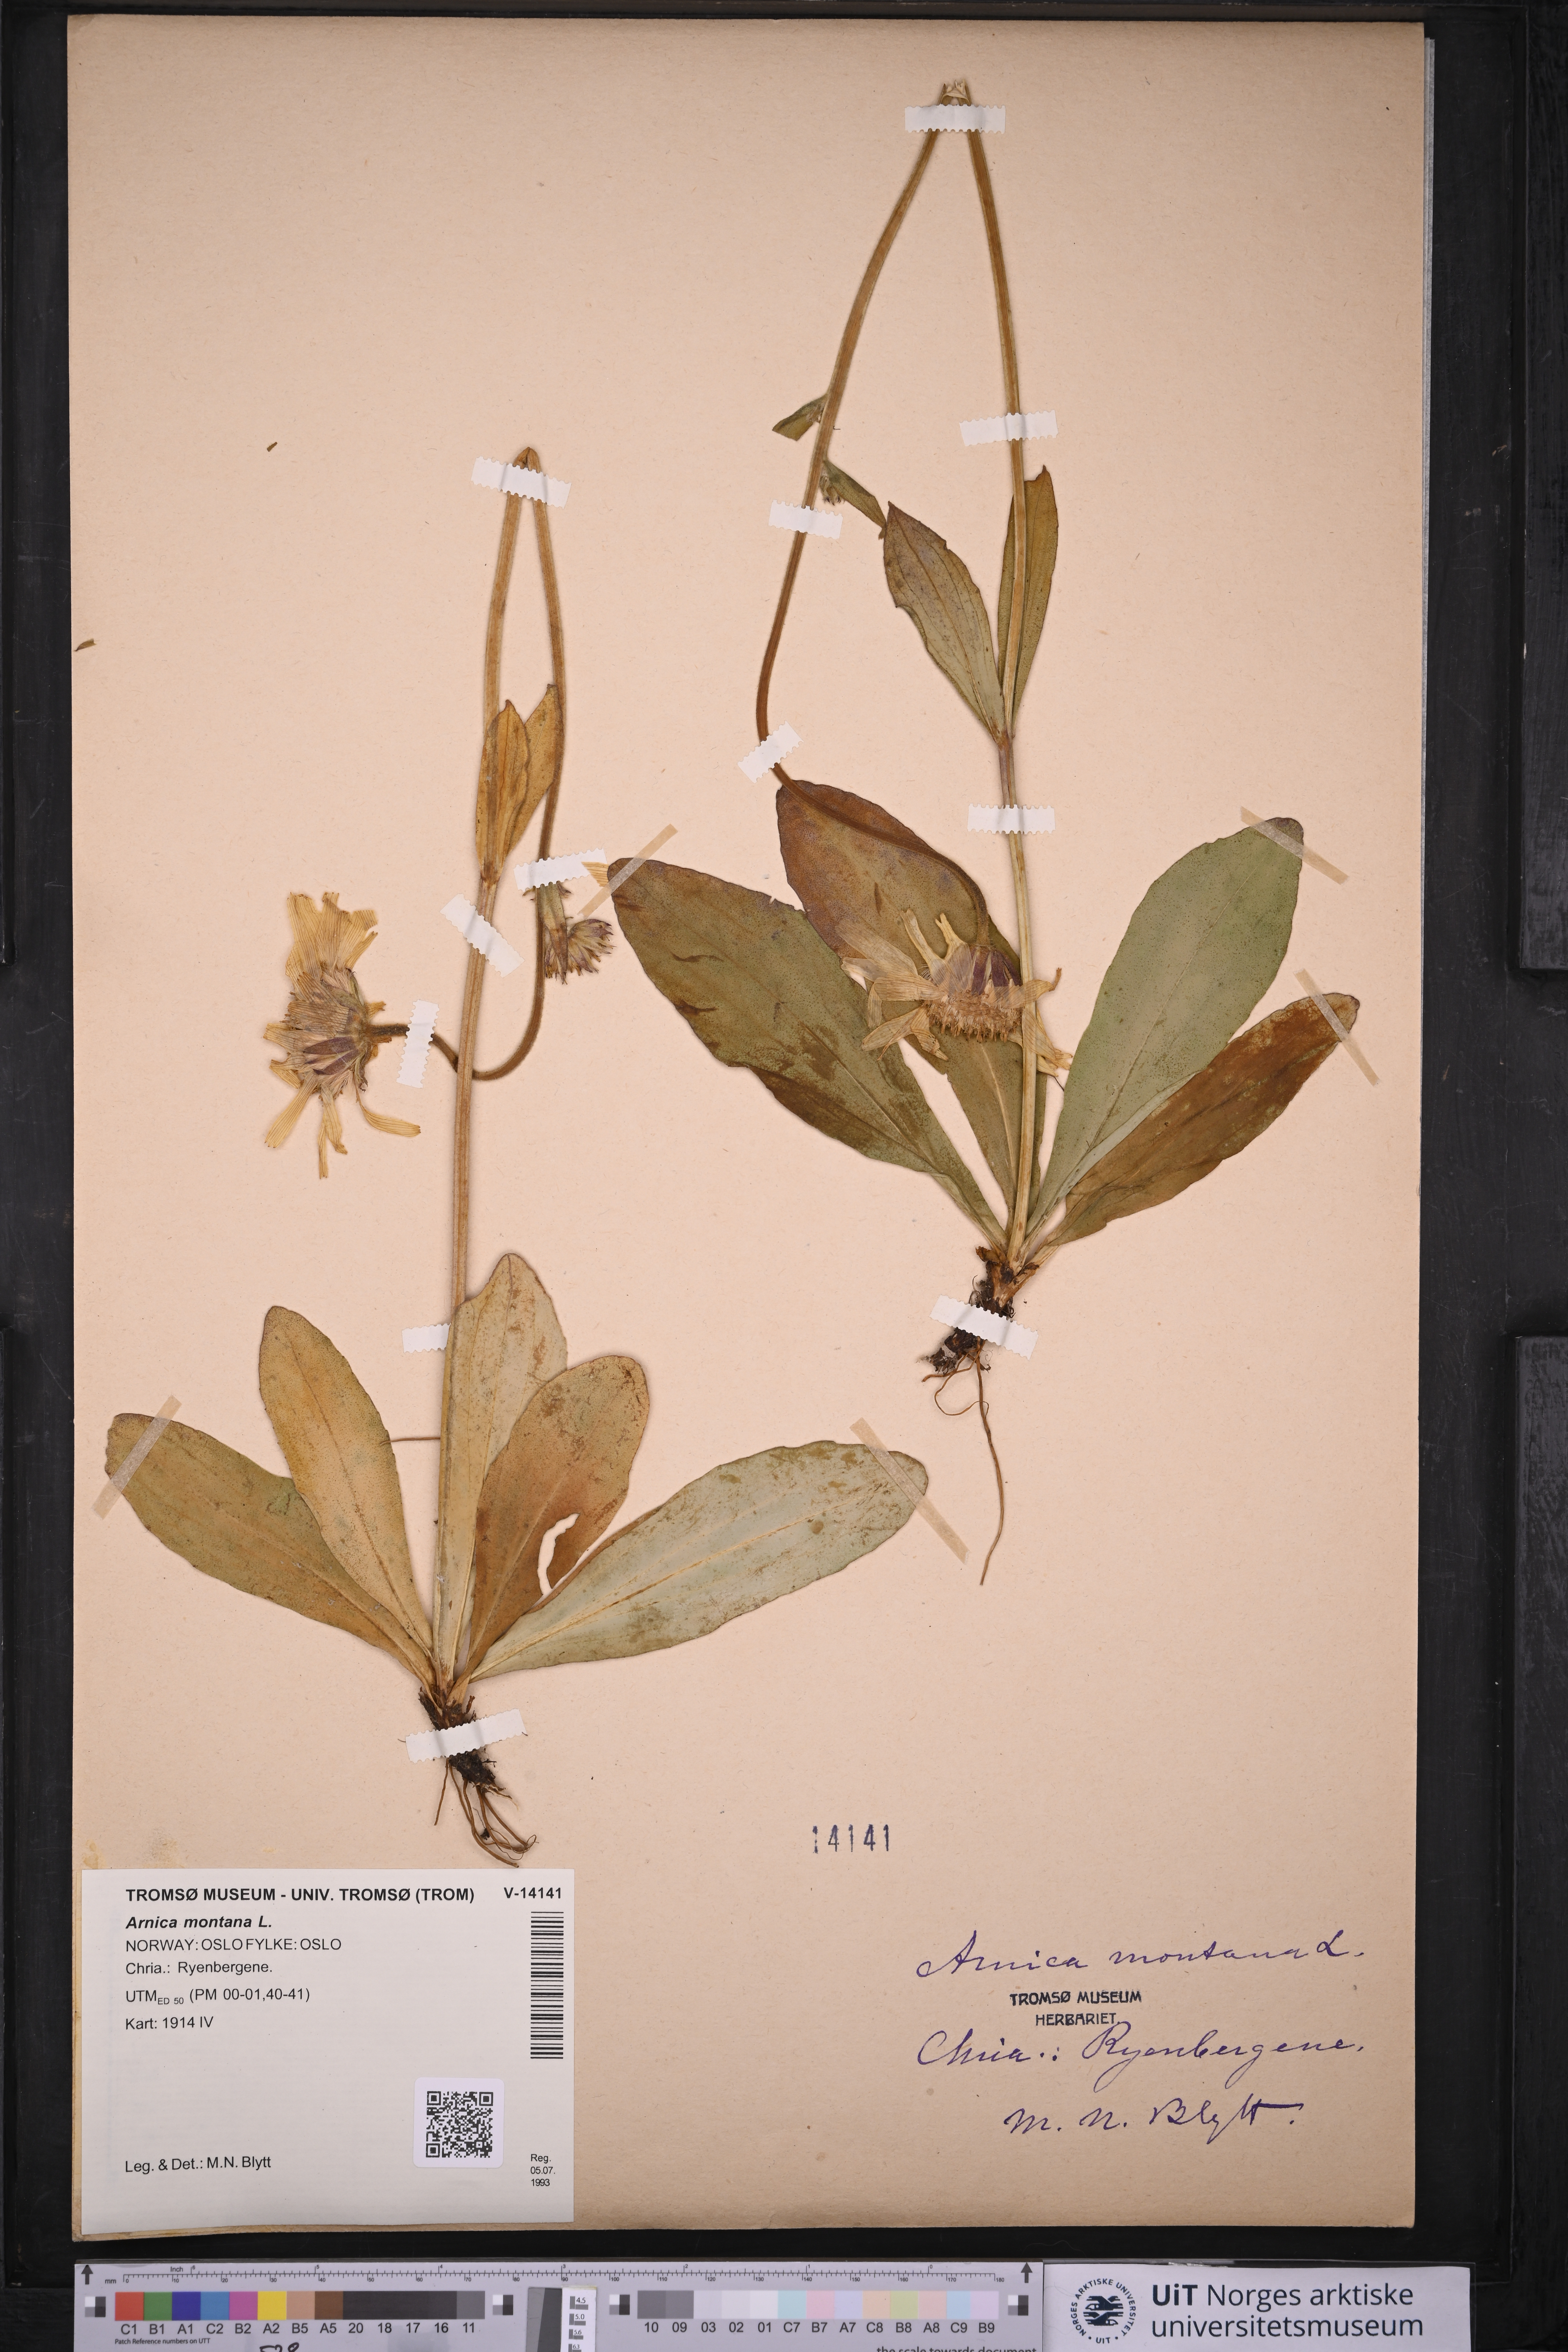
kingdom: Plantae
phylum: Tracheophyta
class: Magnoliopsida
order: Asterales
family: Asteraceae
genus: Arnica
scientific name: Arnica montana
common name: Leopard's bane
